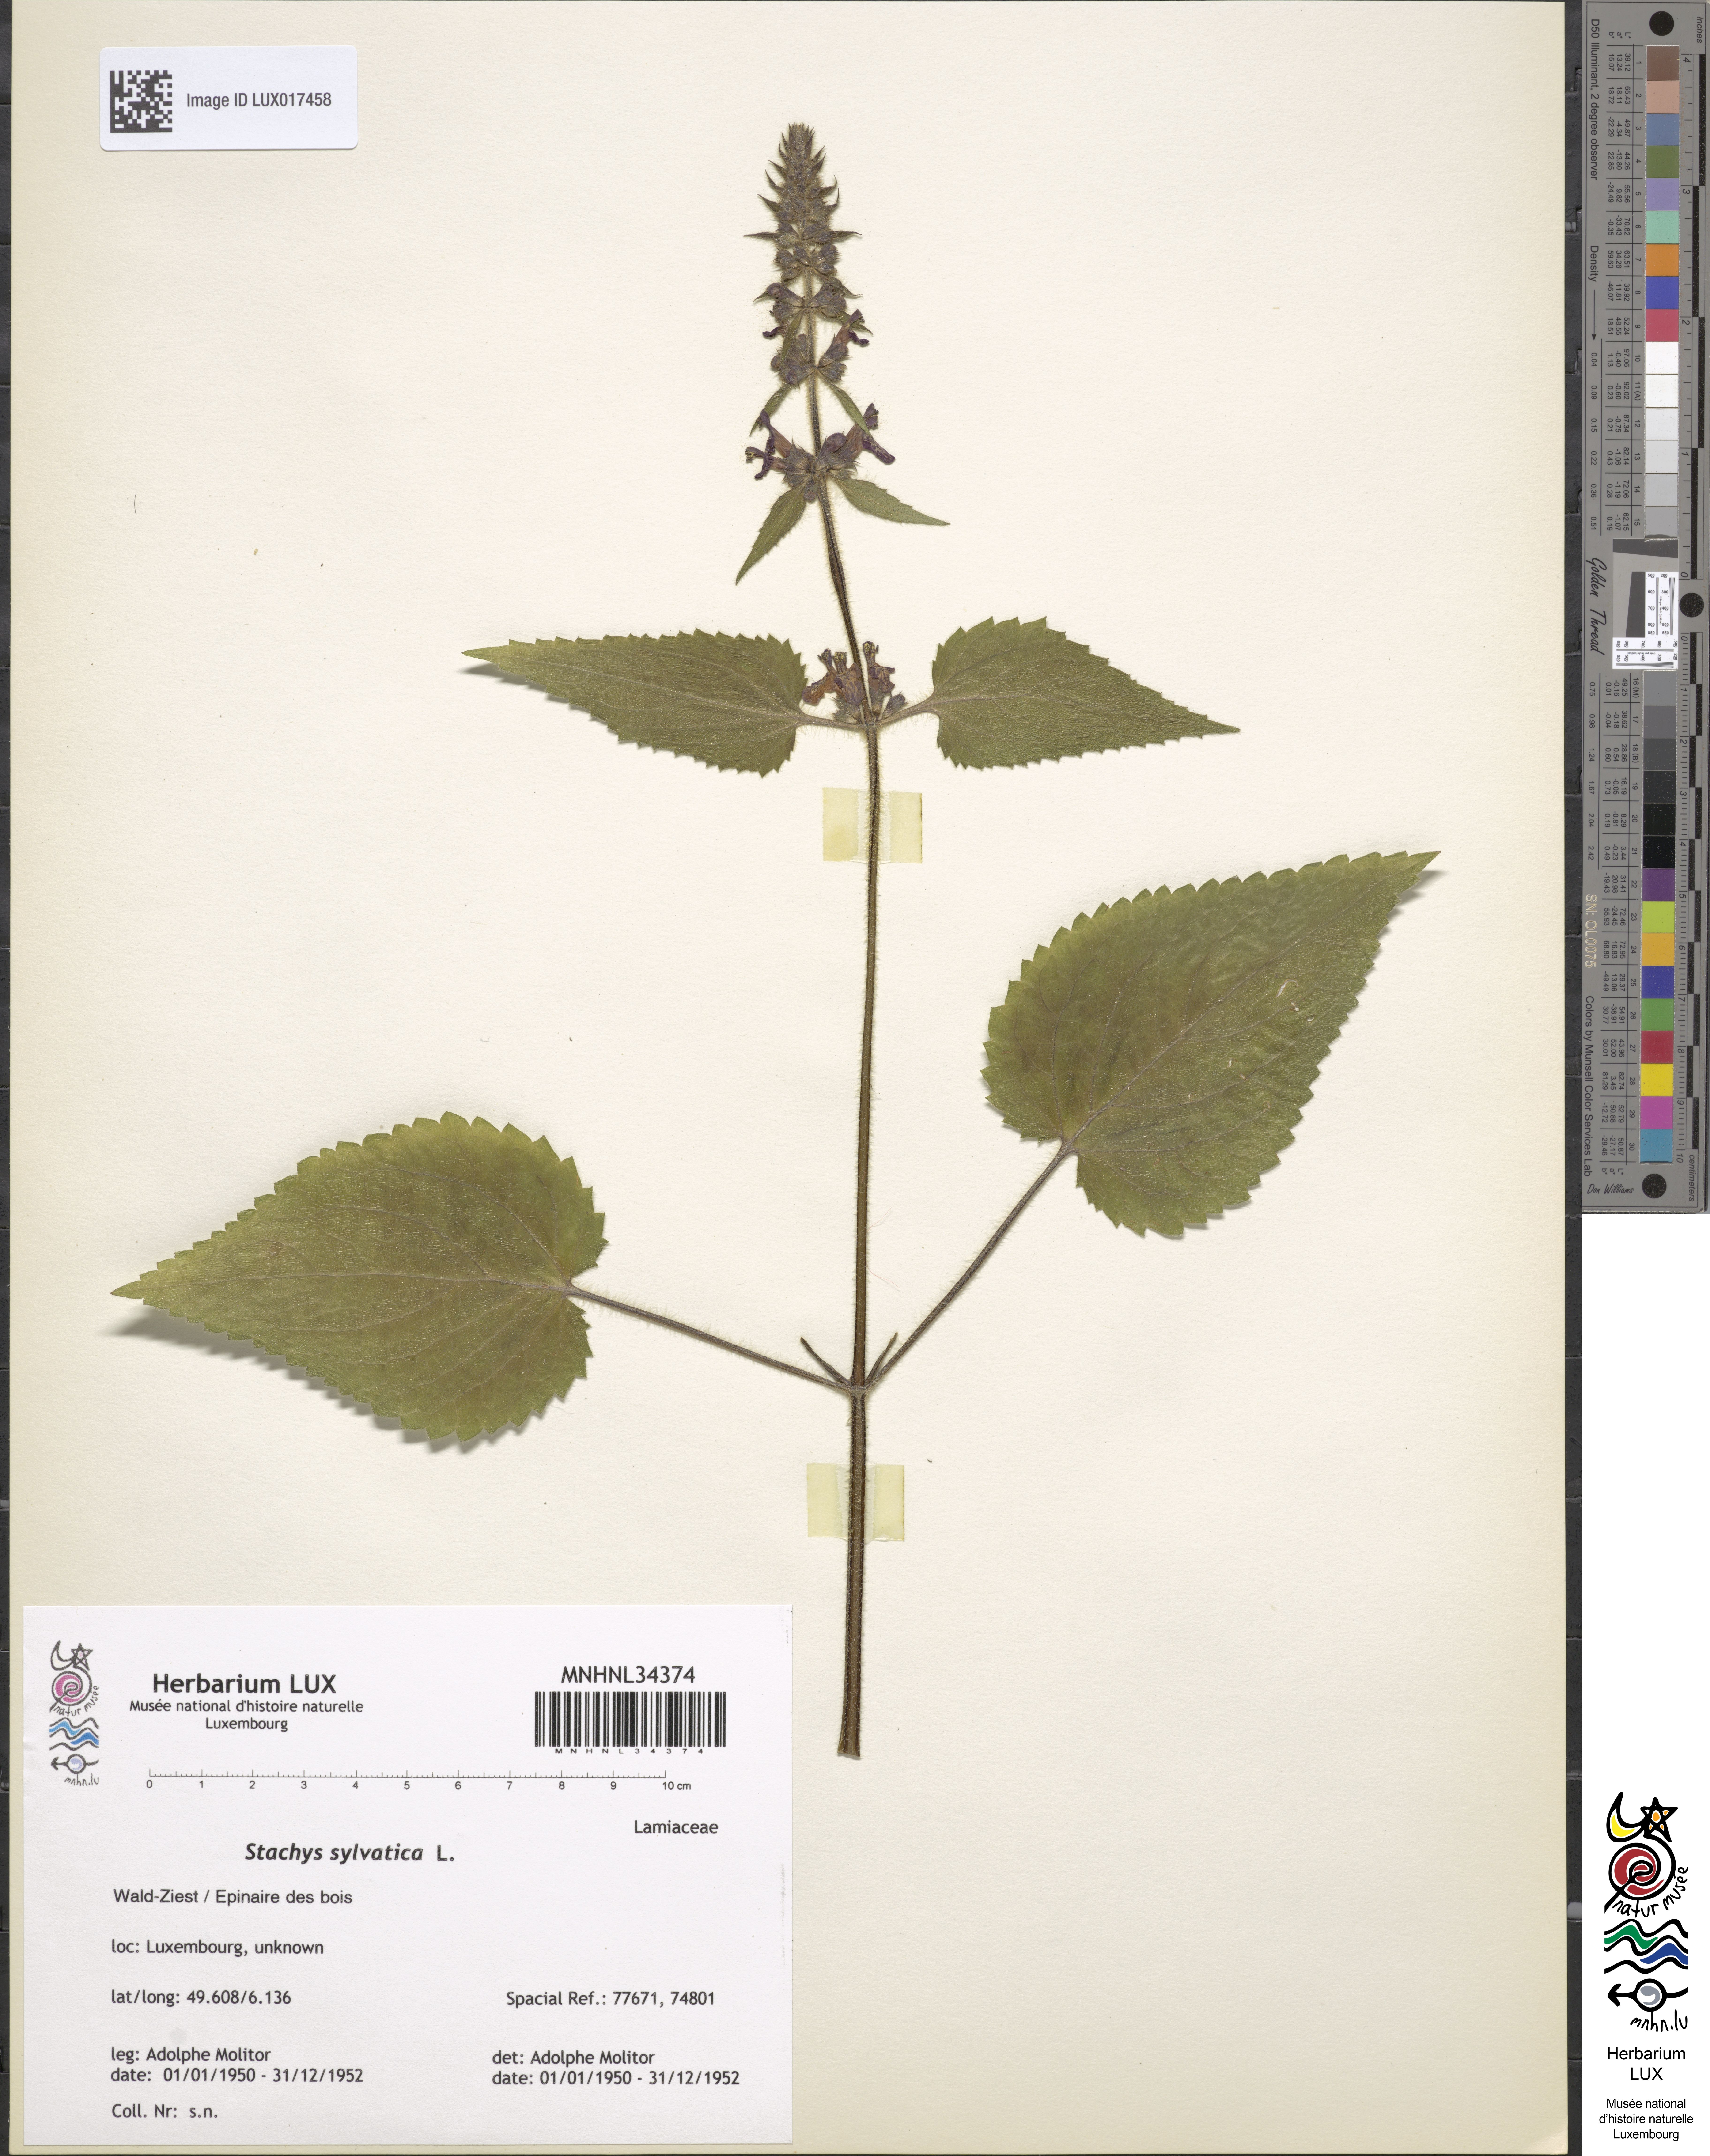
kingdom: Plantae
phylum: Tracheophyta
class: Magnoliopsida
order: Lamiales
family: Lamiaceae
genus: Stachys
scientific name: Stachys sylvatica
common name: Hedge woundwort
